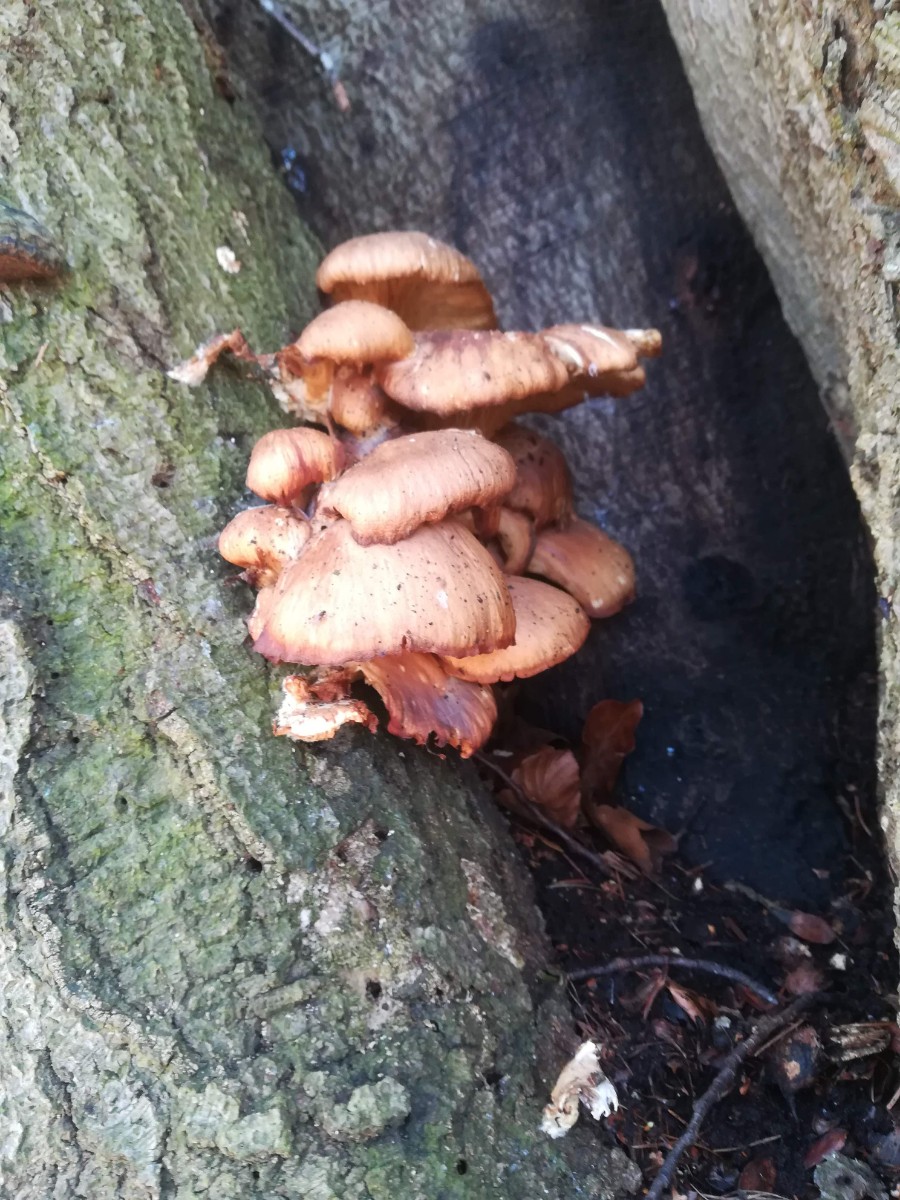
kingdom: Fungi
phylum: Basidiomycota
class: Agaricomycetes
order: Agaricales
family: Pleurotaceae
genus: Pleurotus
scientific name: Pleurotus ostreatus
